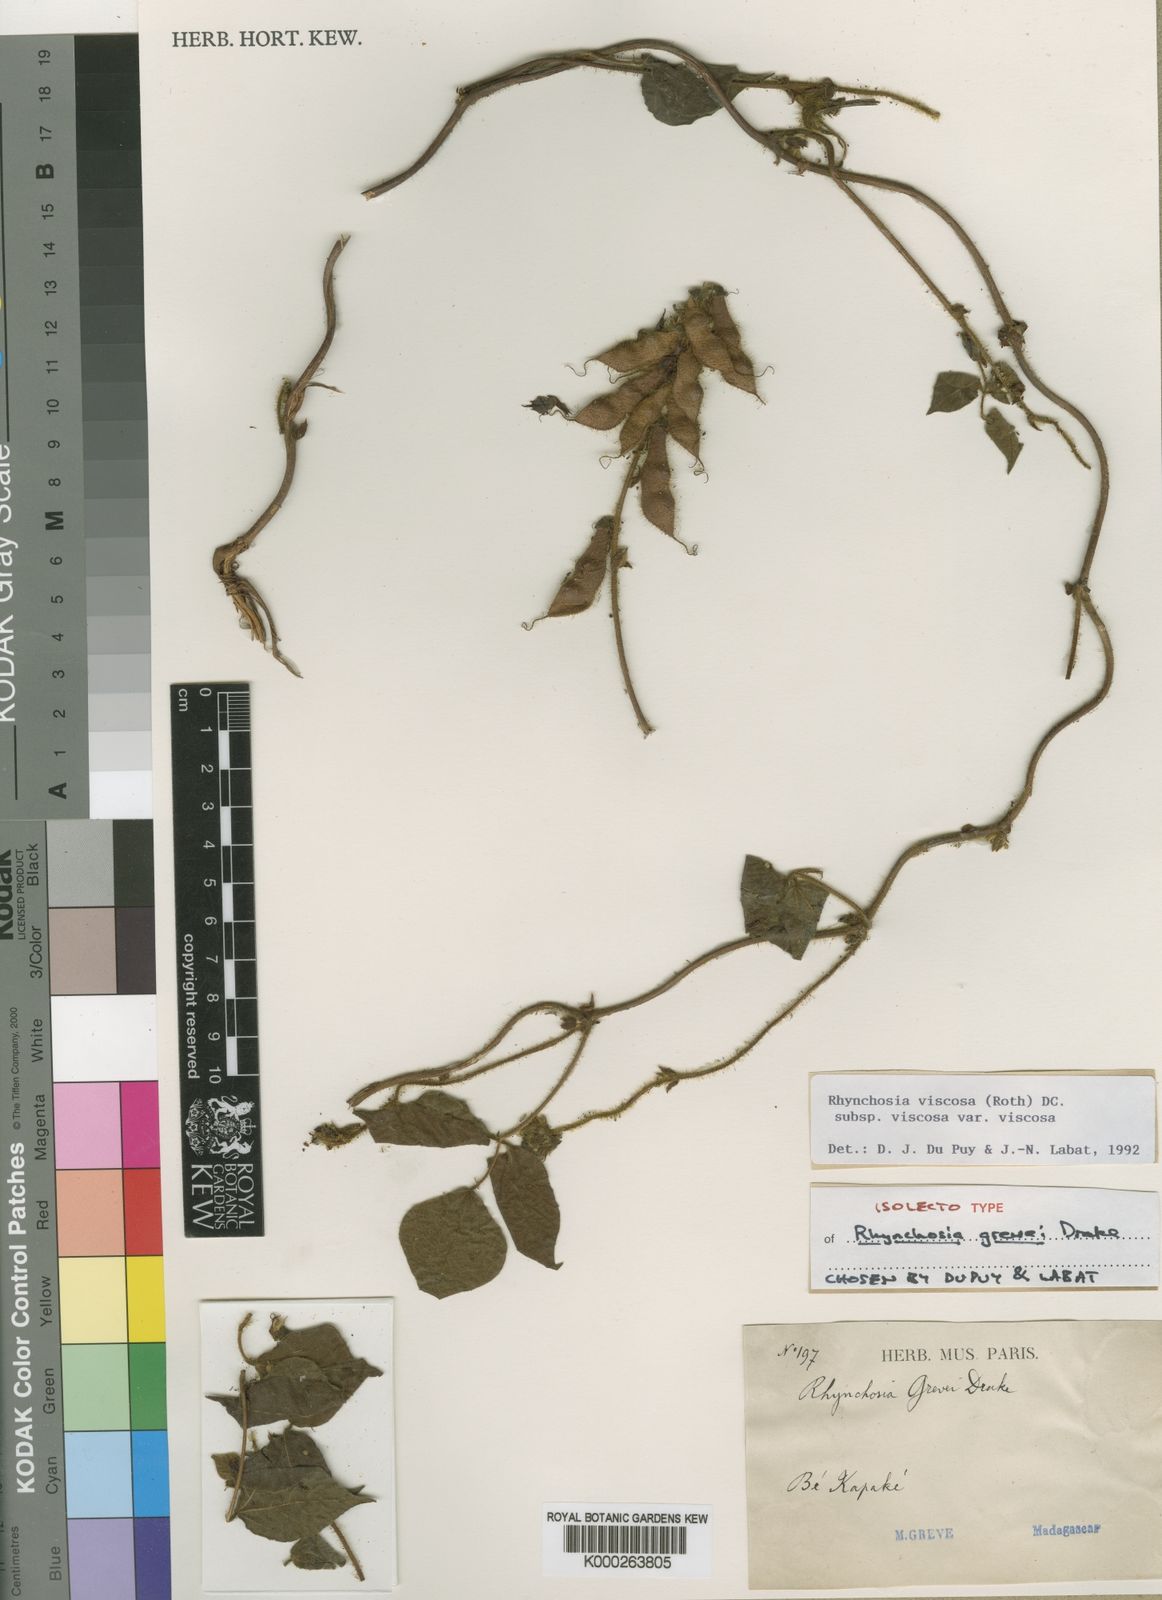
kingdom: Plantae
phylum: Tracheophyta
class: Magnoliopsida
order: Fabales
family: Fabaceae
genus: Rhynchosia
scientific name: Rhynchosia viscosa
